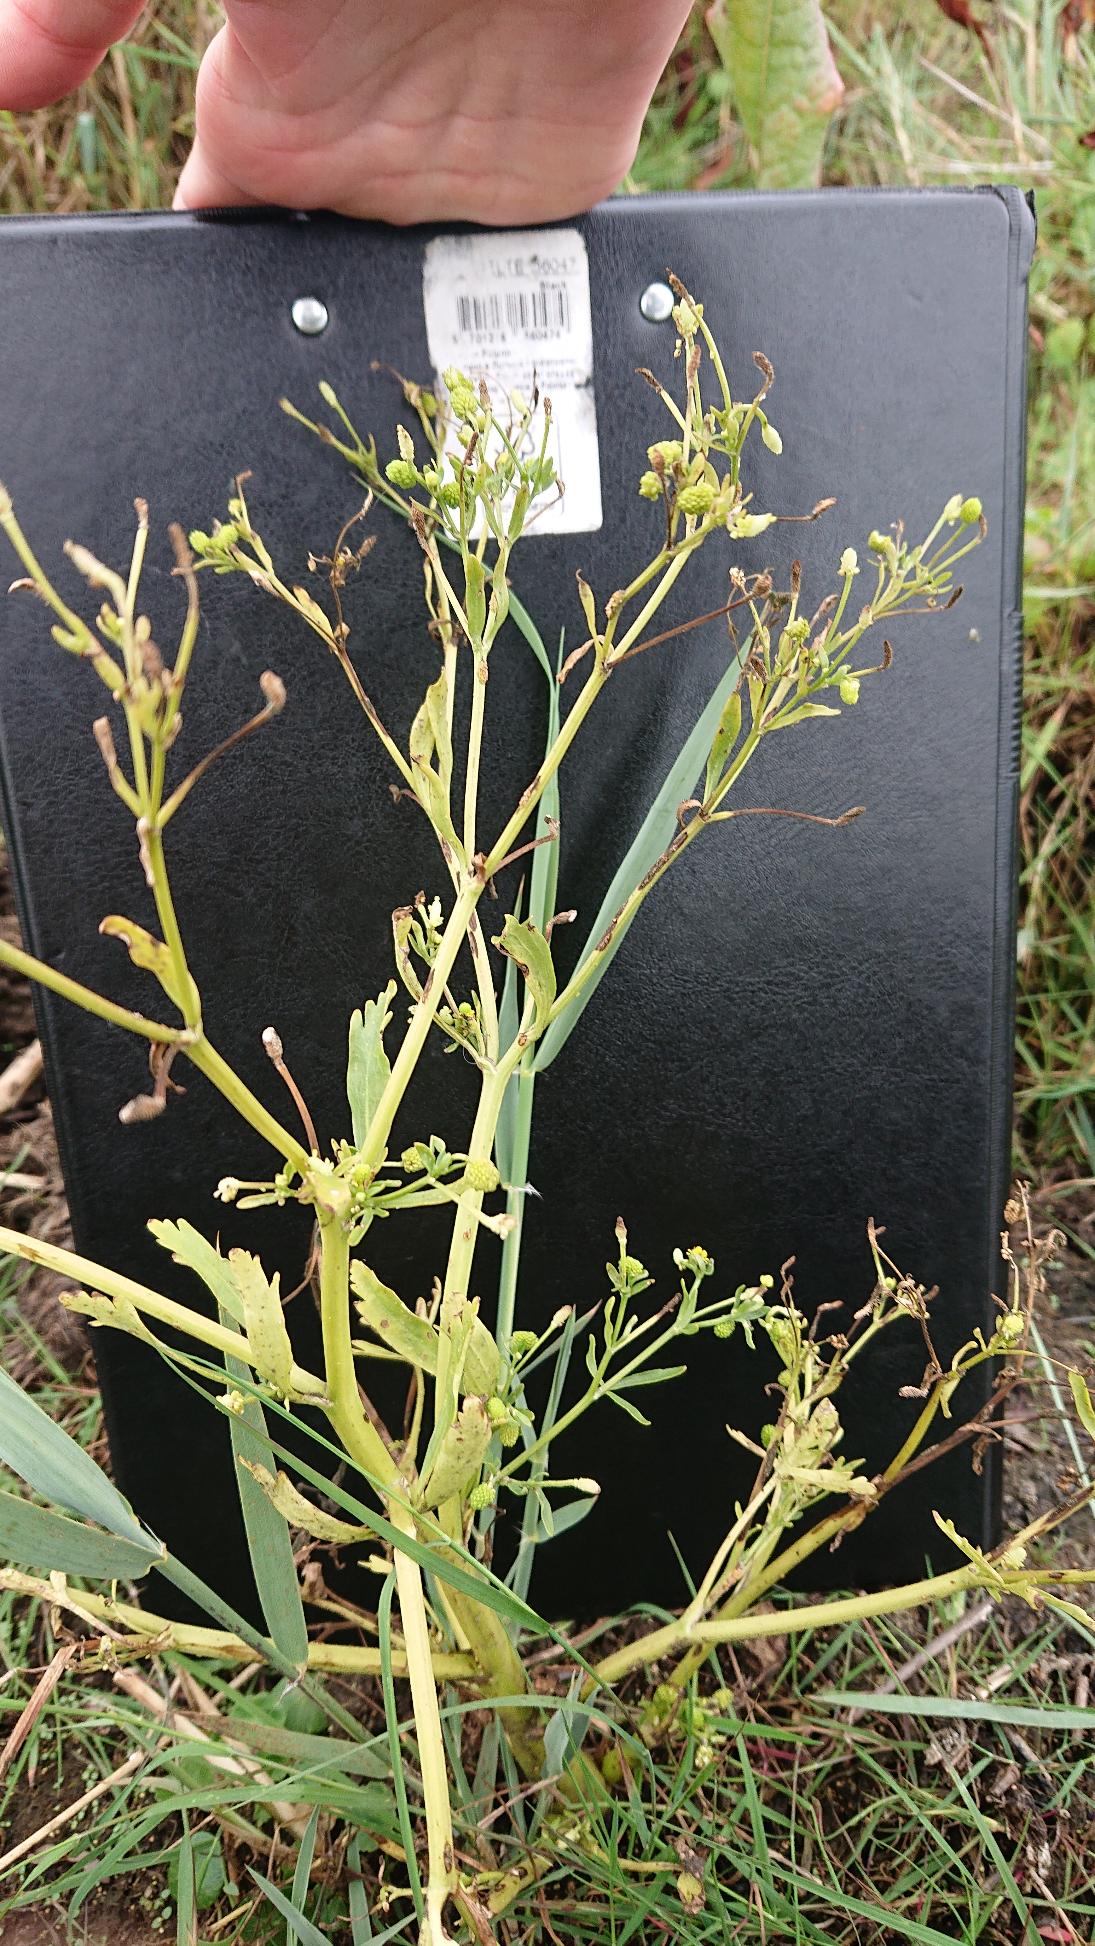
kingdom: Plantae
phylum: Tracheophyta
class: Magnoliopsida
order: Ranunculales
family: Ranunculaceae
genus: Ranunculus
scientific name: Ranunculus sceleratus
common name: Tigger-ranunkel
